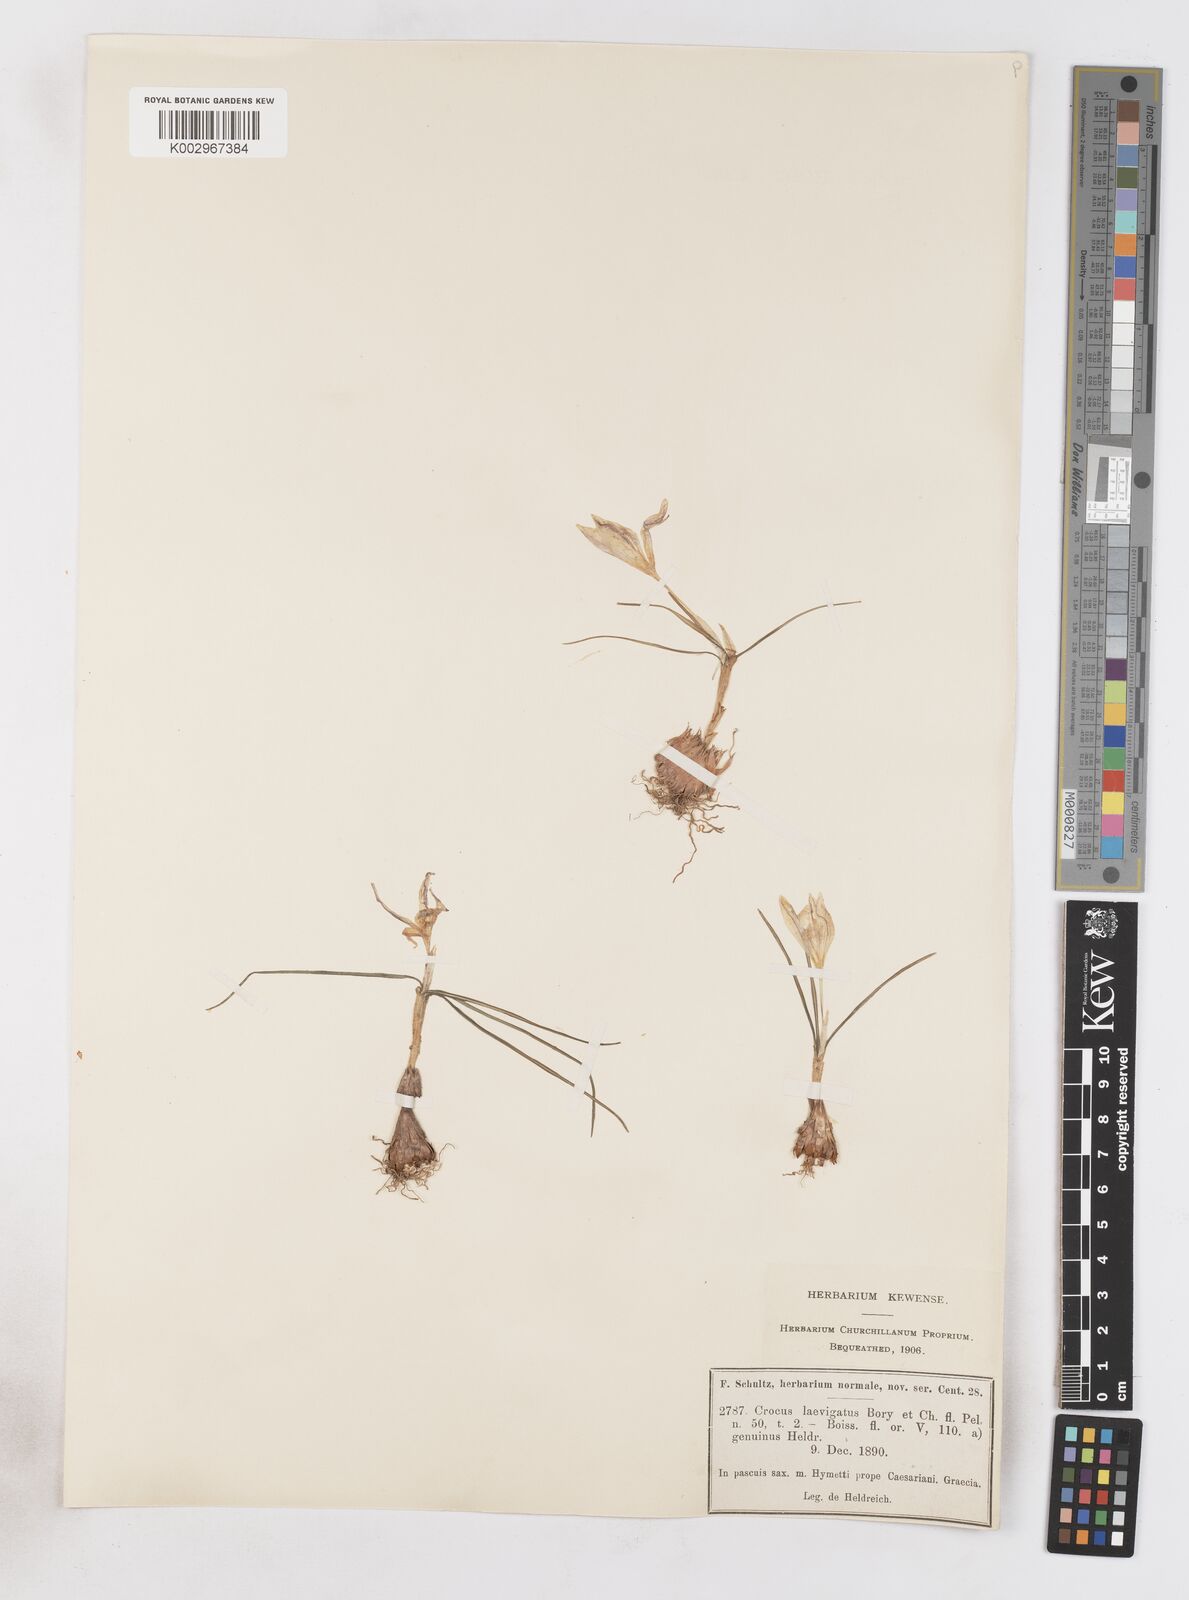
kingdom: Plantae
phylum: Tracheophyta
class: Liliopsida
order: Asparagales
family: Iridaceae
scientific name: Iridaceae
